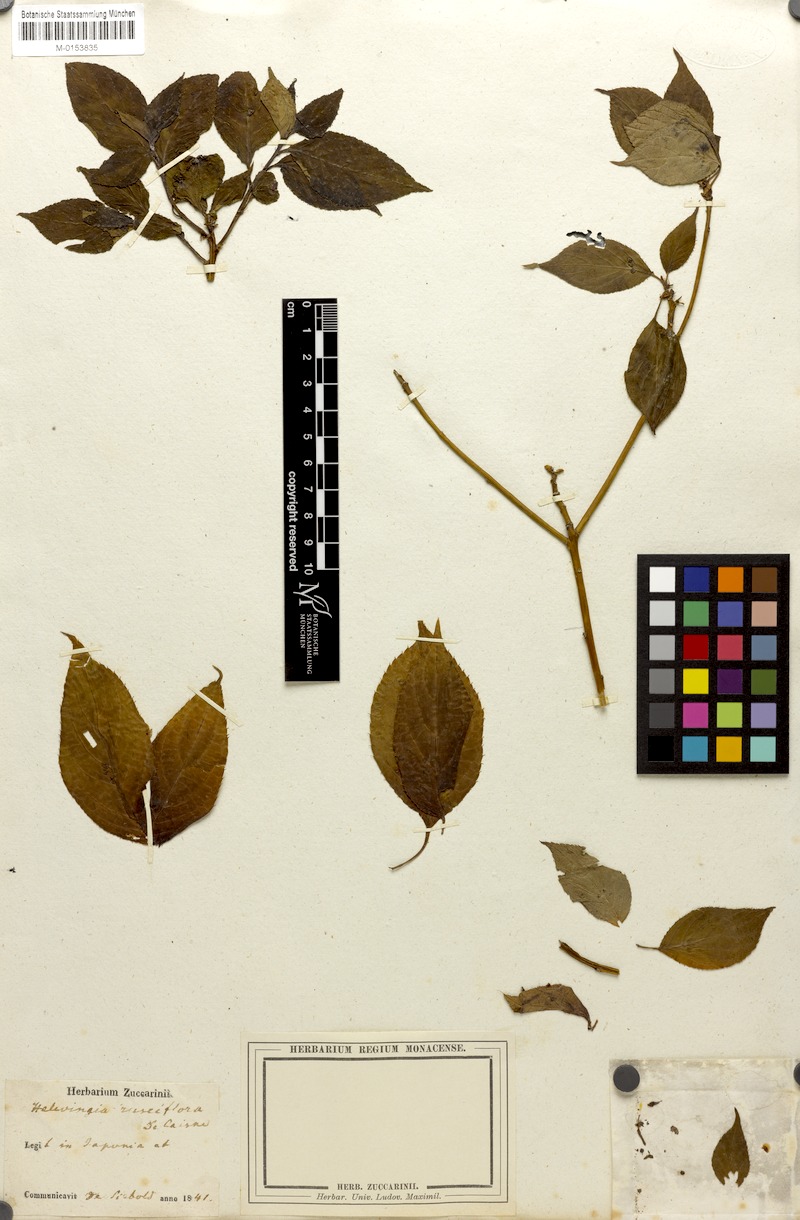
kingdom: Plantae
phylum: Tracheophyta
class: Magnoliopsida
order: Aquifoliales
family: Helwingiaceae
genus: Helwingia
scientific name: Helwingia japonica
